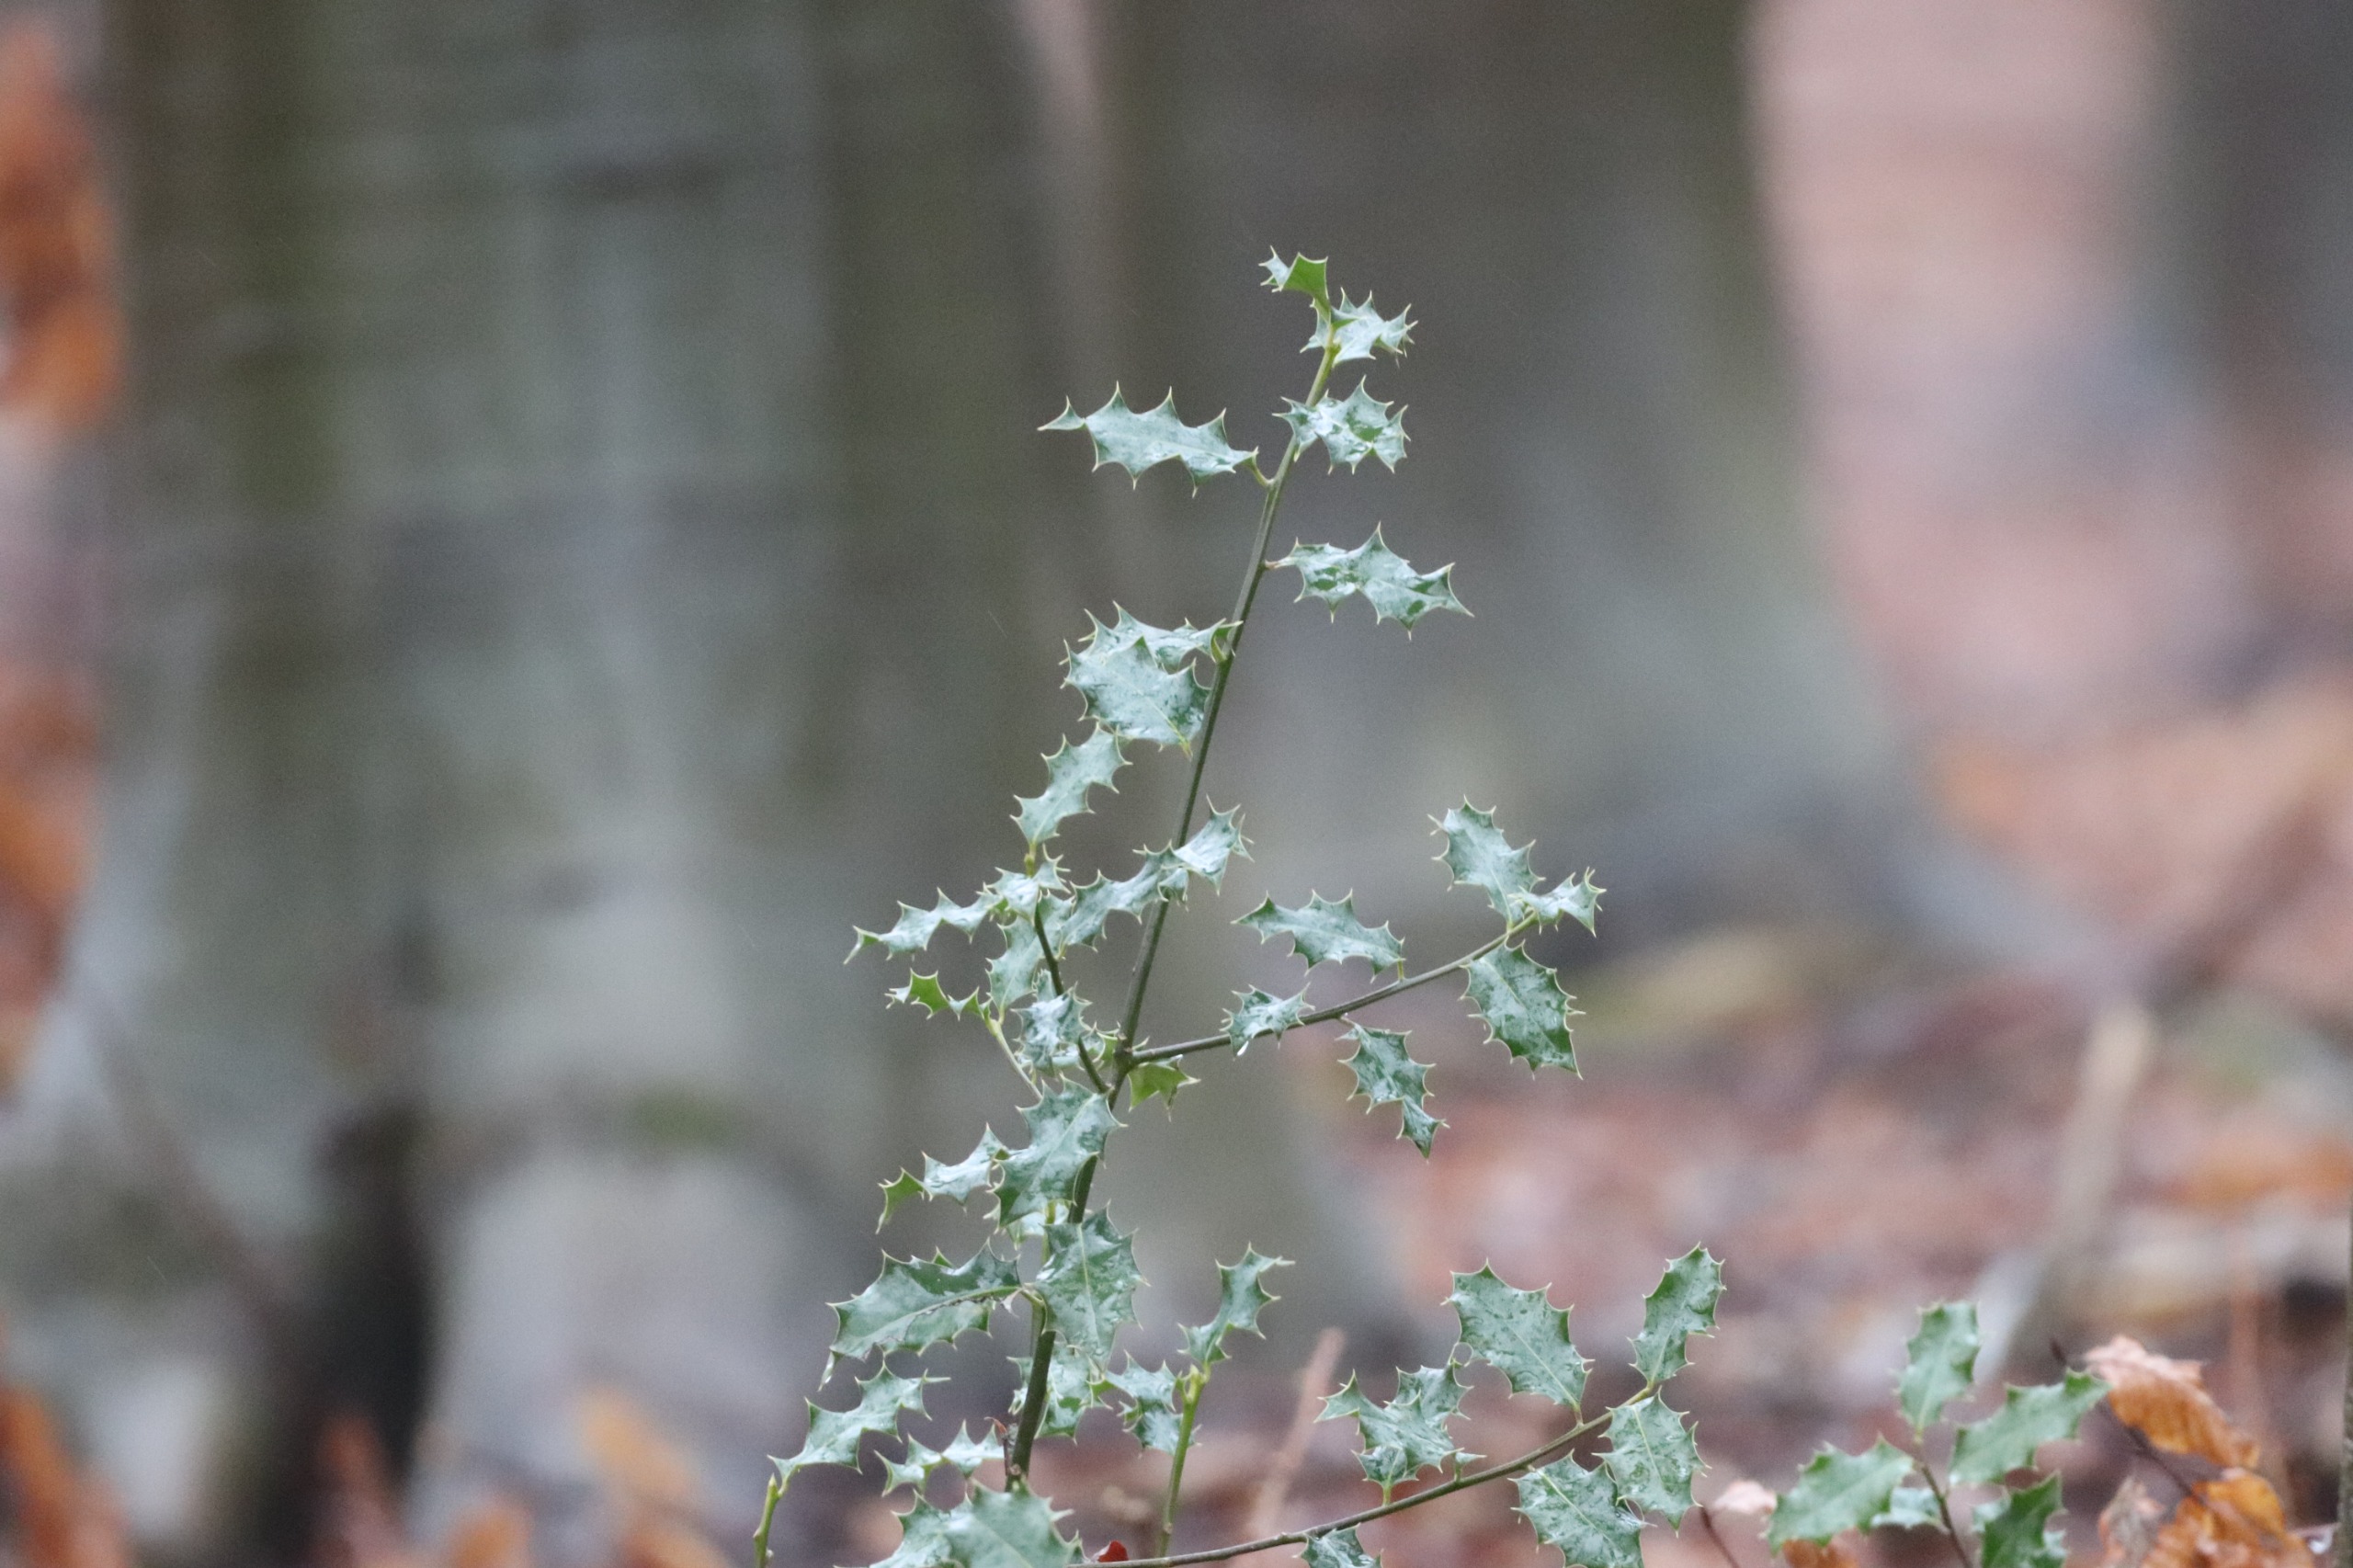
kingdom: Plantae
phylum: Tracheophyta
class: Magnoliopsida
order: Aquifoliales
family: Aquifoliaceae
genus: Ilex
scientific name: Ilex aquifolium
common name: Kristtorn
